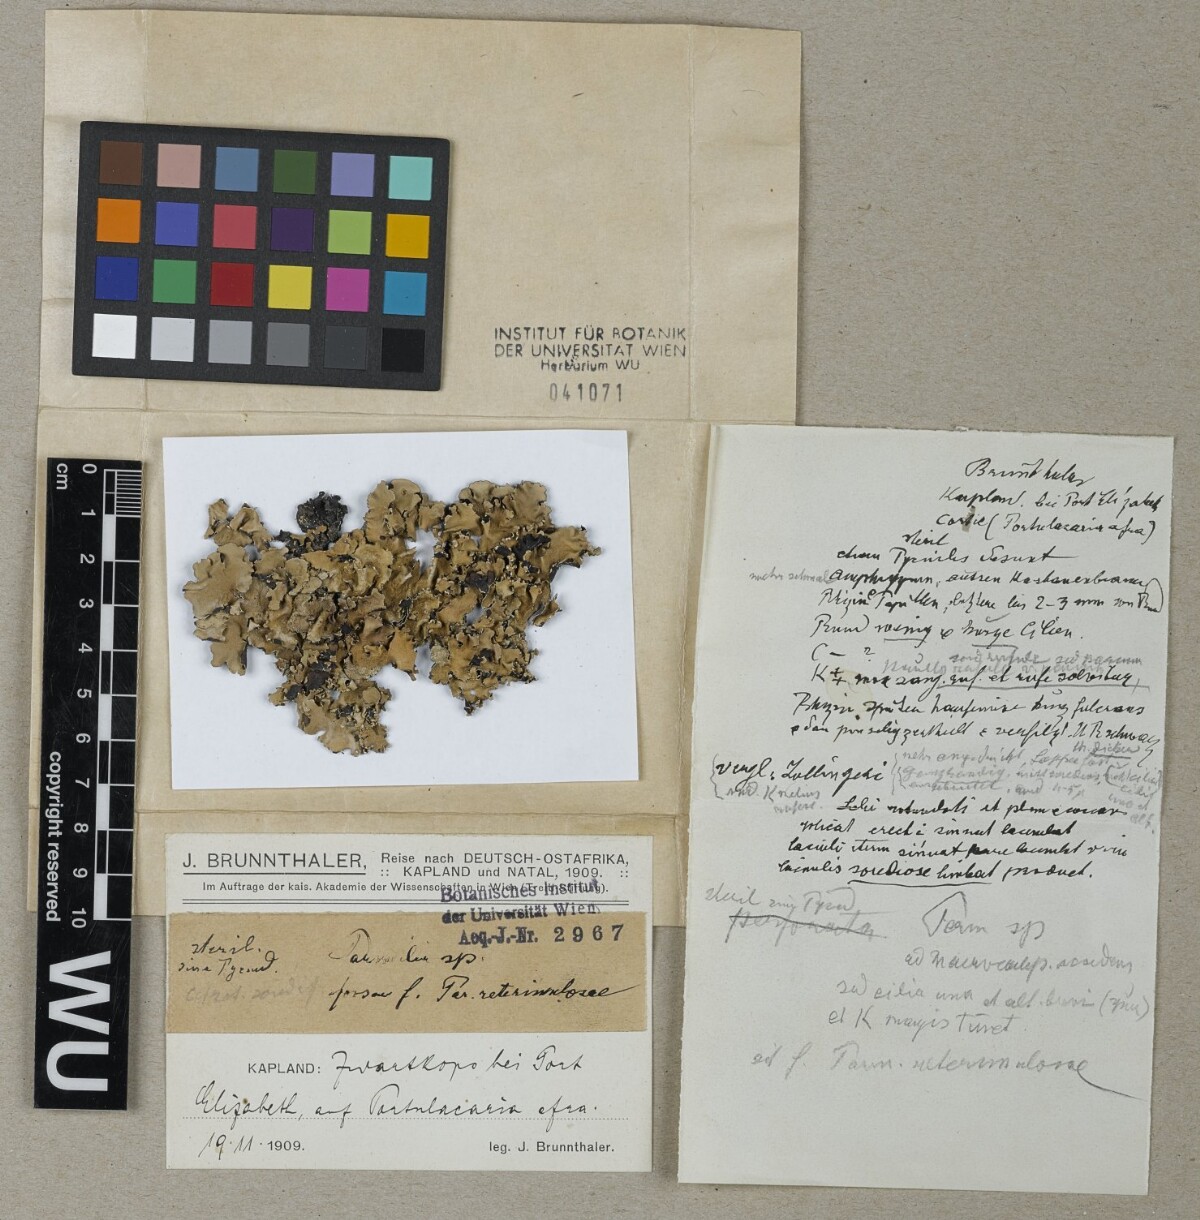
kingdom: Fungi
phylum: Ascomycota
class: Lecanoromycetes
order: Lecanorales
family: Parmeliaceae
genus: Parmotrema
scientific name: Parmotrema reterimulosum
